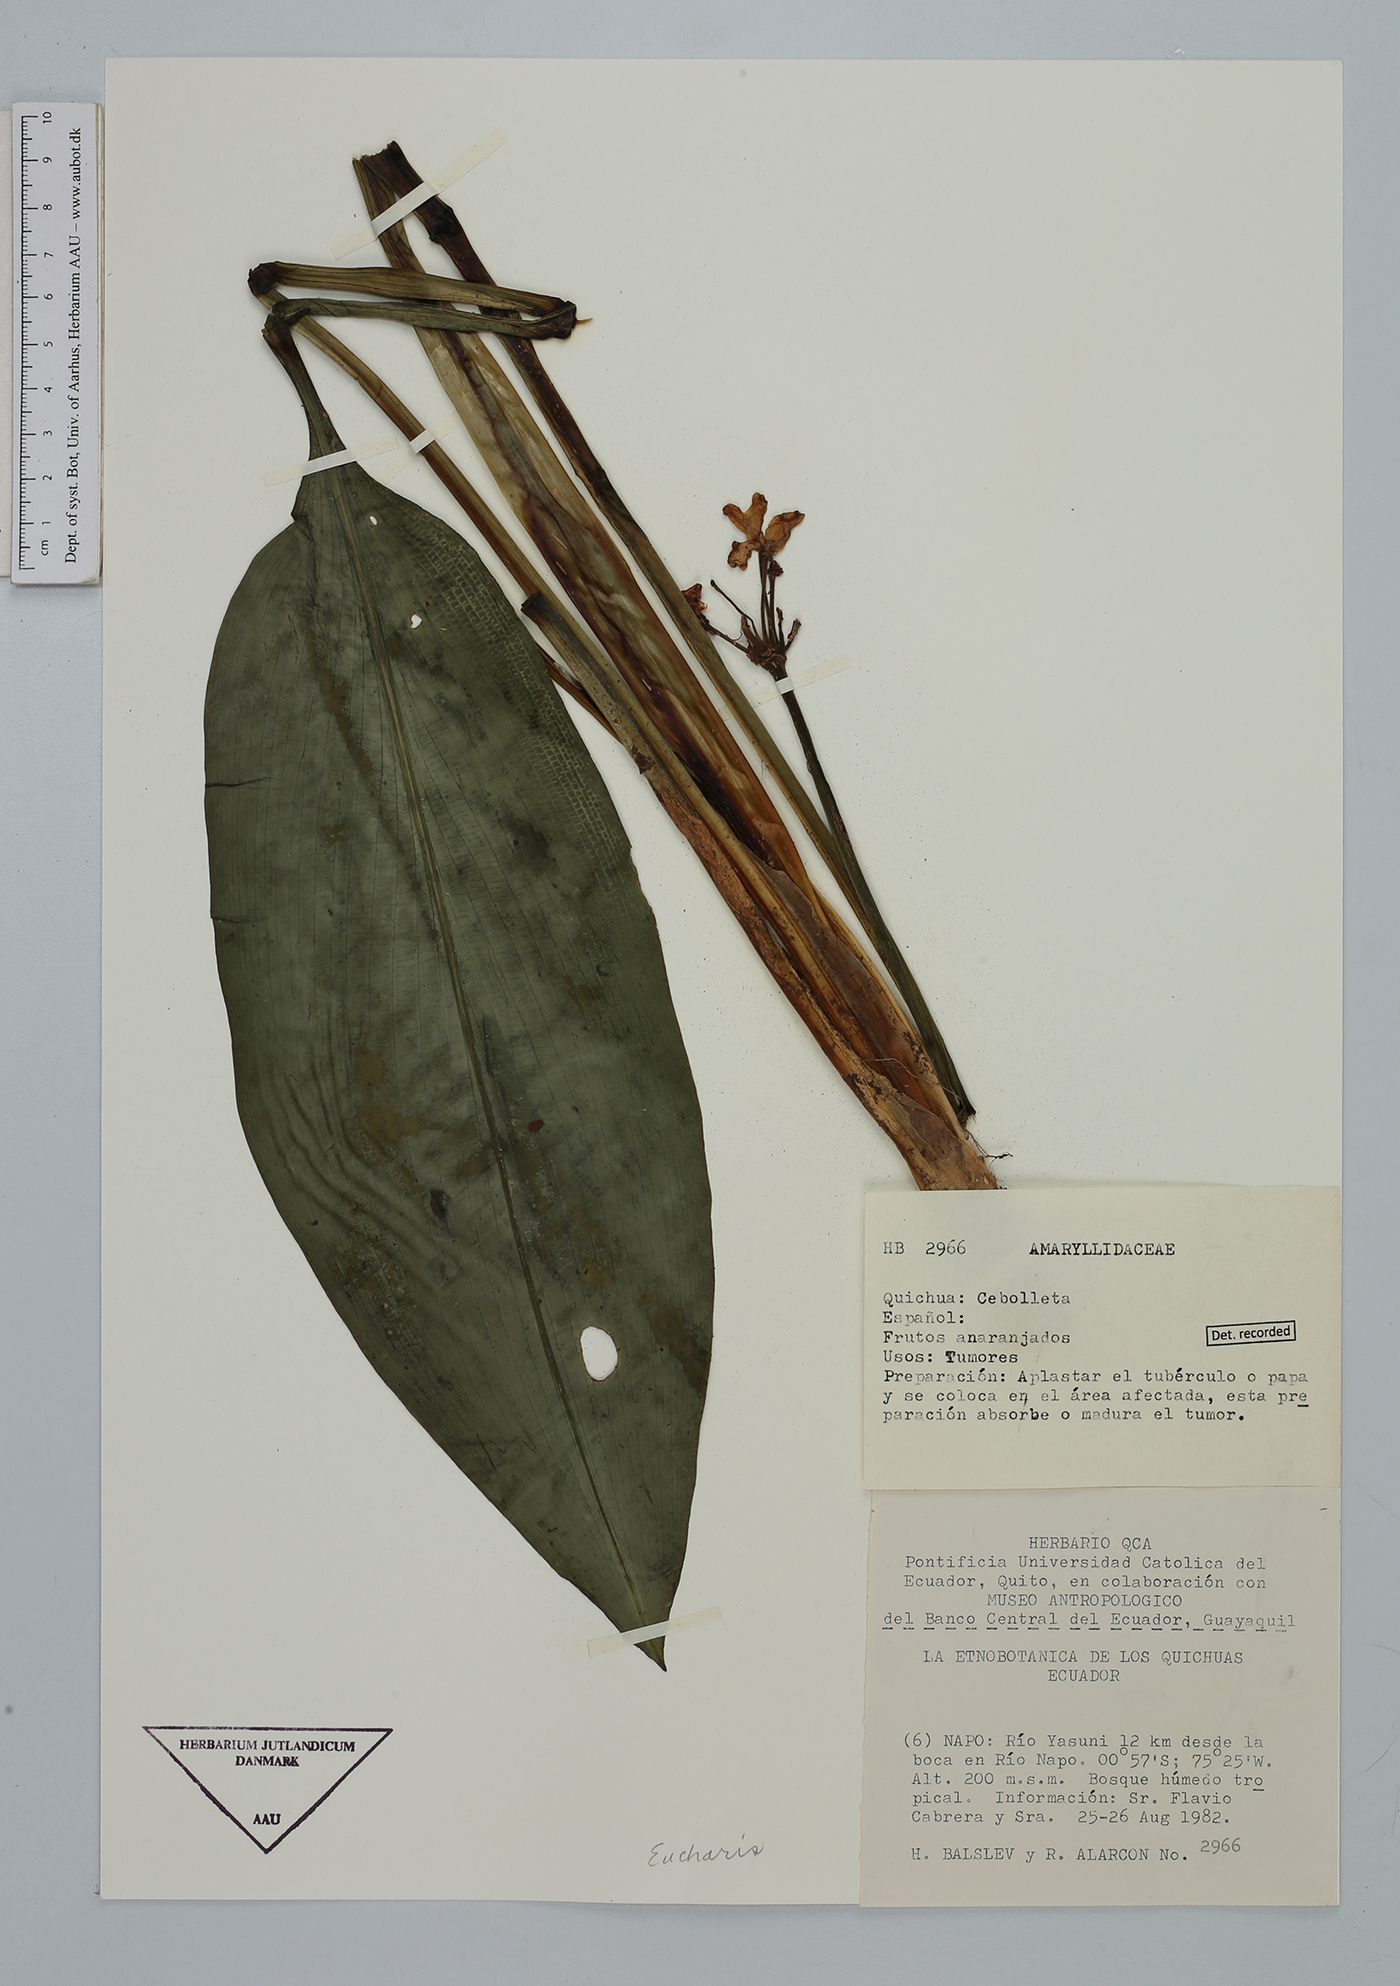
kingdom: Plantae
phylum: Tracheophyta
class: Liliopsida
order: Asparagales
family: Amaryllidaceae
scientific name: Amaryllidaceae
